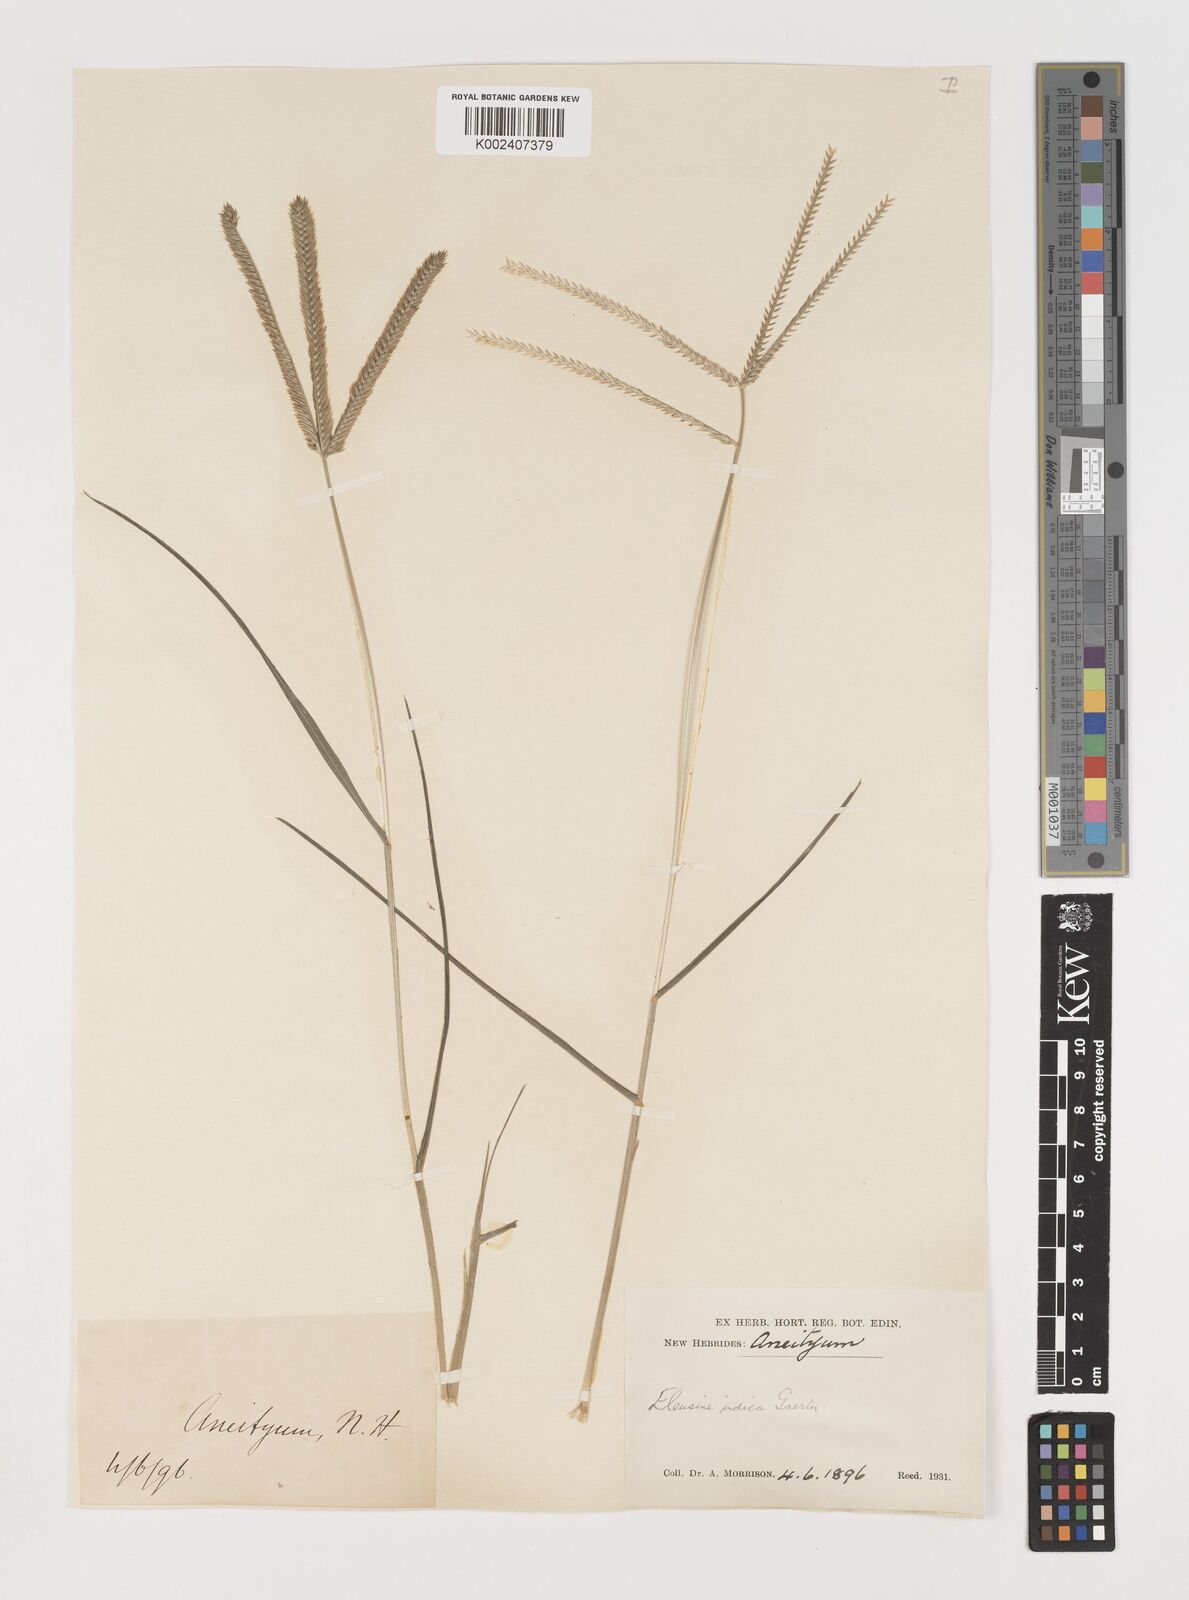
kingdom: Plantae
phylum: Tracheophyta
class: Liliopsida
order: Poales
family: Poaceae
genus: Eleusine
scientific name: Eleusine indica
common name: Yard-grass
